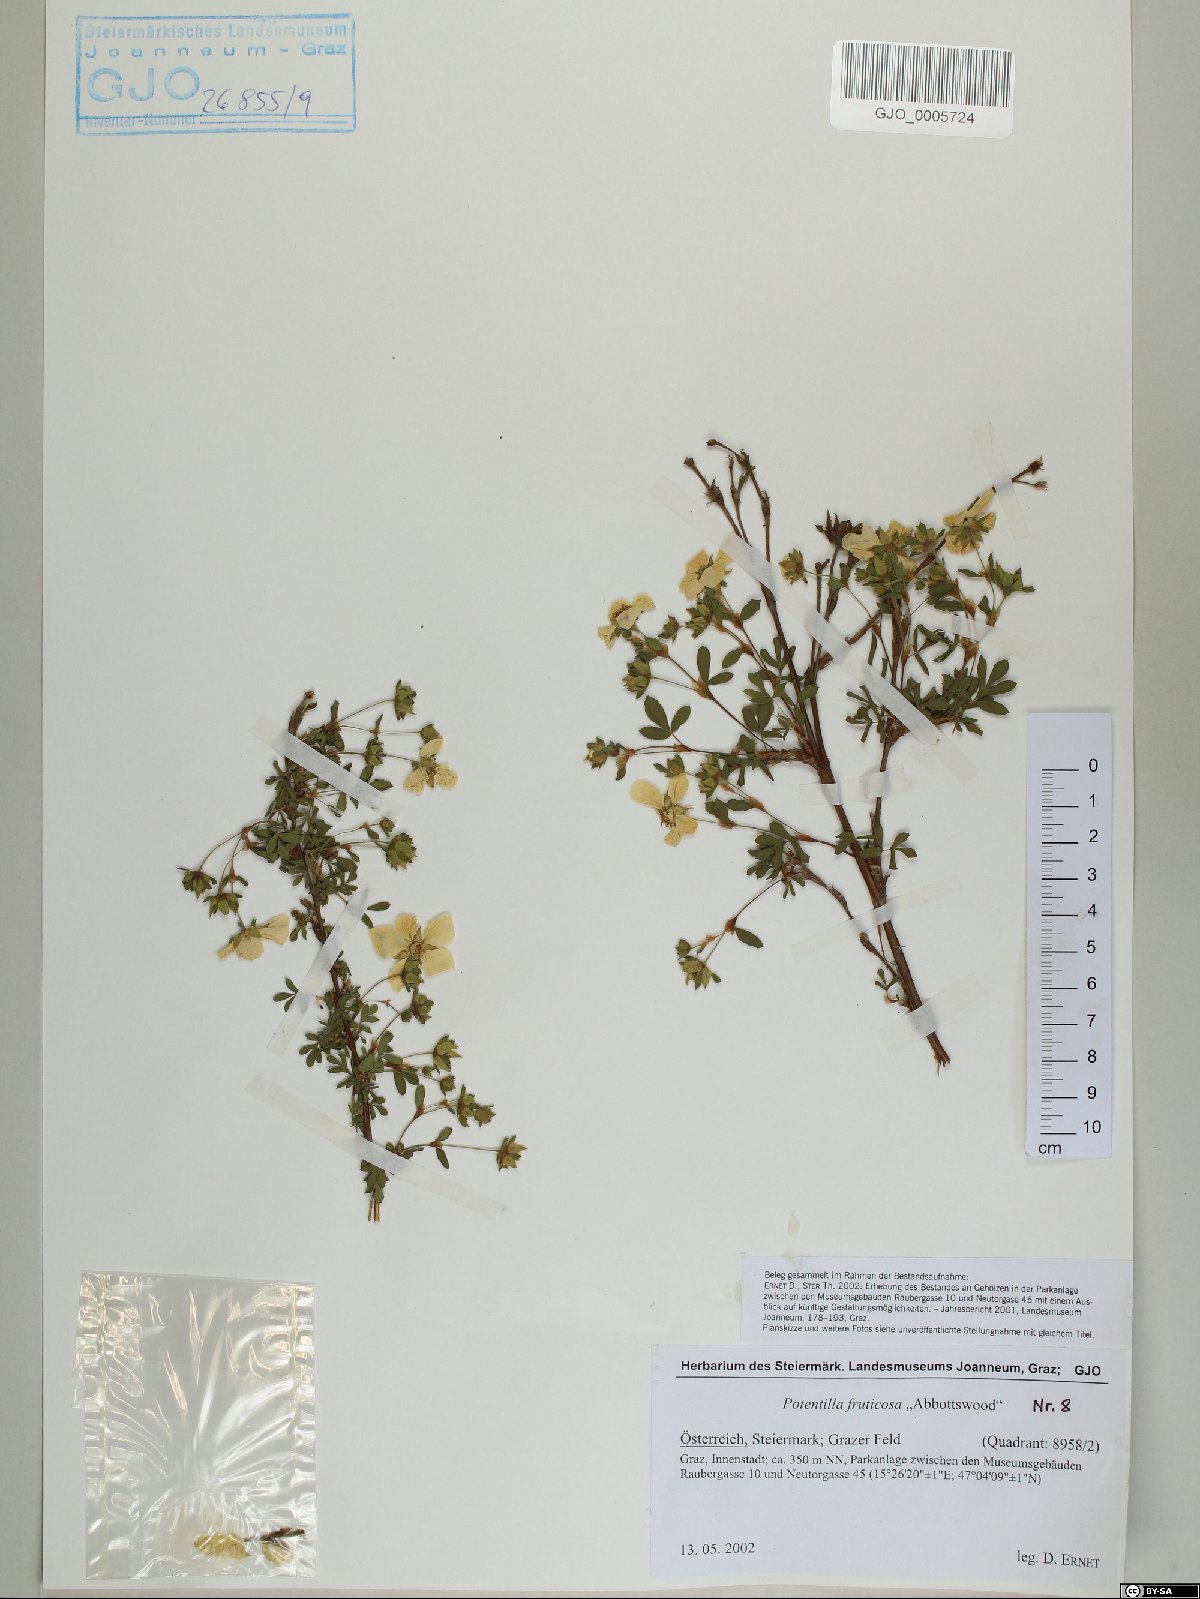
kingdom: Plantae
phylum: Tracheophyta
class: Magnoliopsida
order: Rosales
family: Rosaceae
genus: Dasiphora
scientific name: Dasiphora fruticosa
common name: Shrubby cinquefoil
